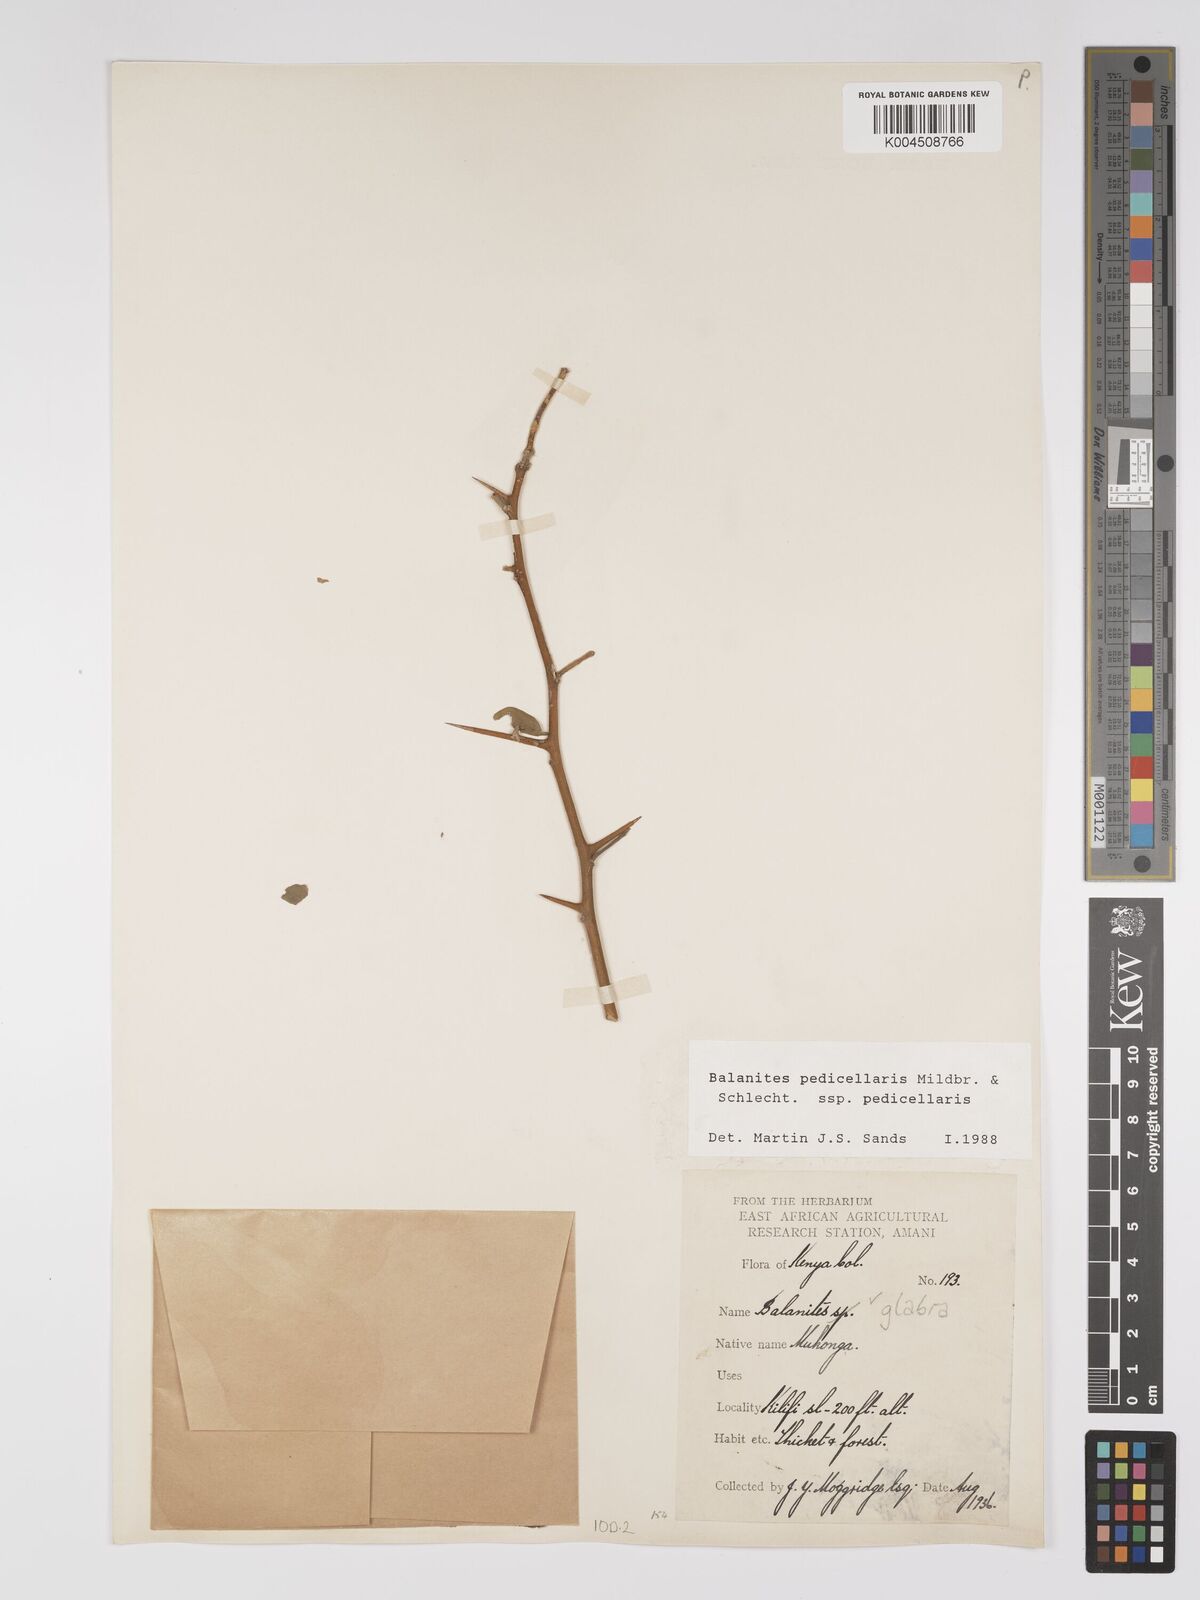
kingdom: Plantae
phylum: Tracheophyta
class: Magnoliopsida
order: Zygophyllales
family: Zygophyllaceae
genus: Balanites
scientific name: Balanites pedicellaris
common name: Small green-thorn
